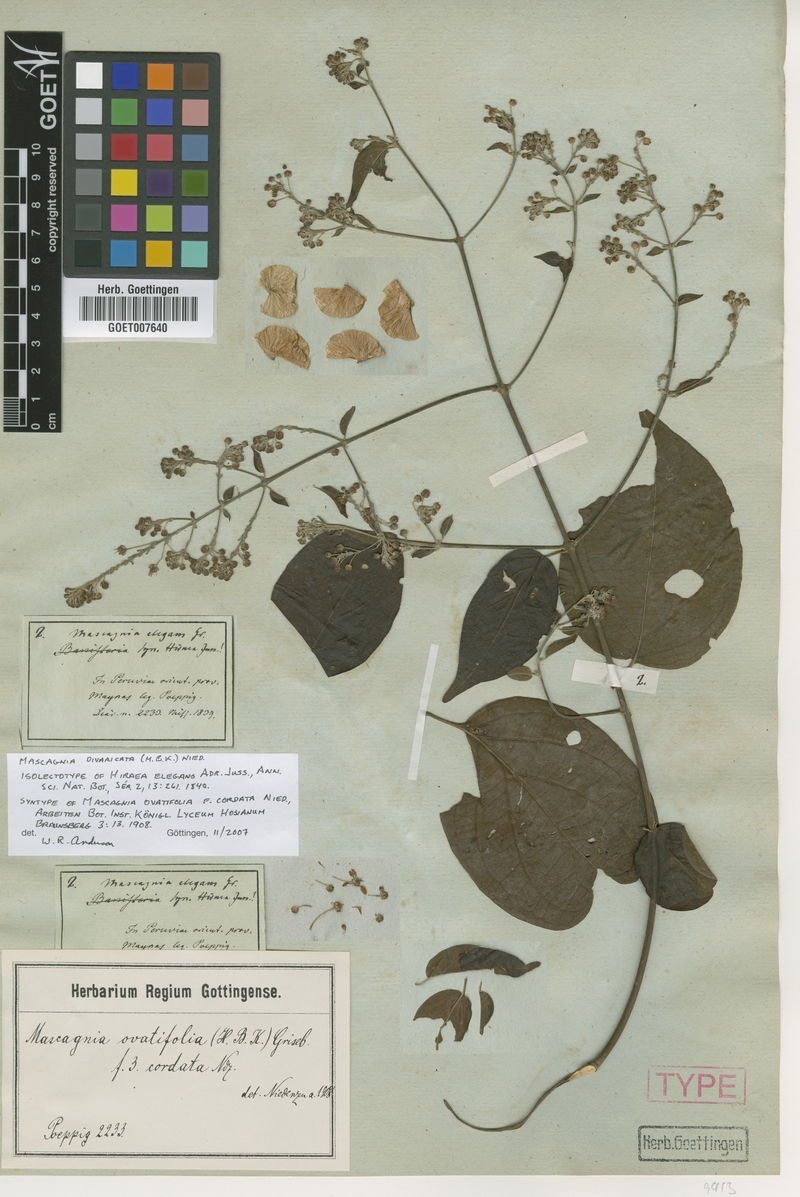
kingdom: Plantae
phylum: Tracheophyta
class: Magnoliopsida
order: Malpighiales
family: Malpighiaceae
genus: Mascagnia
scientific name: Mascagnia divaricata
